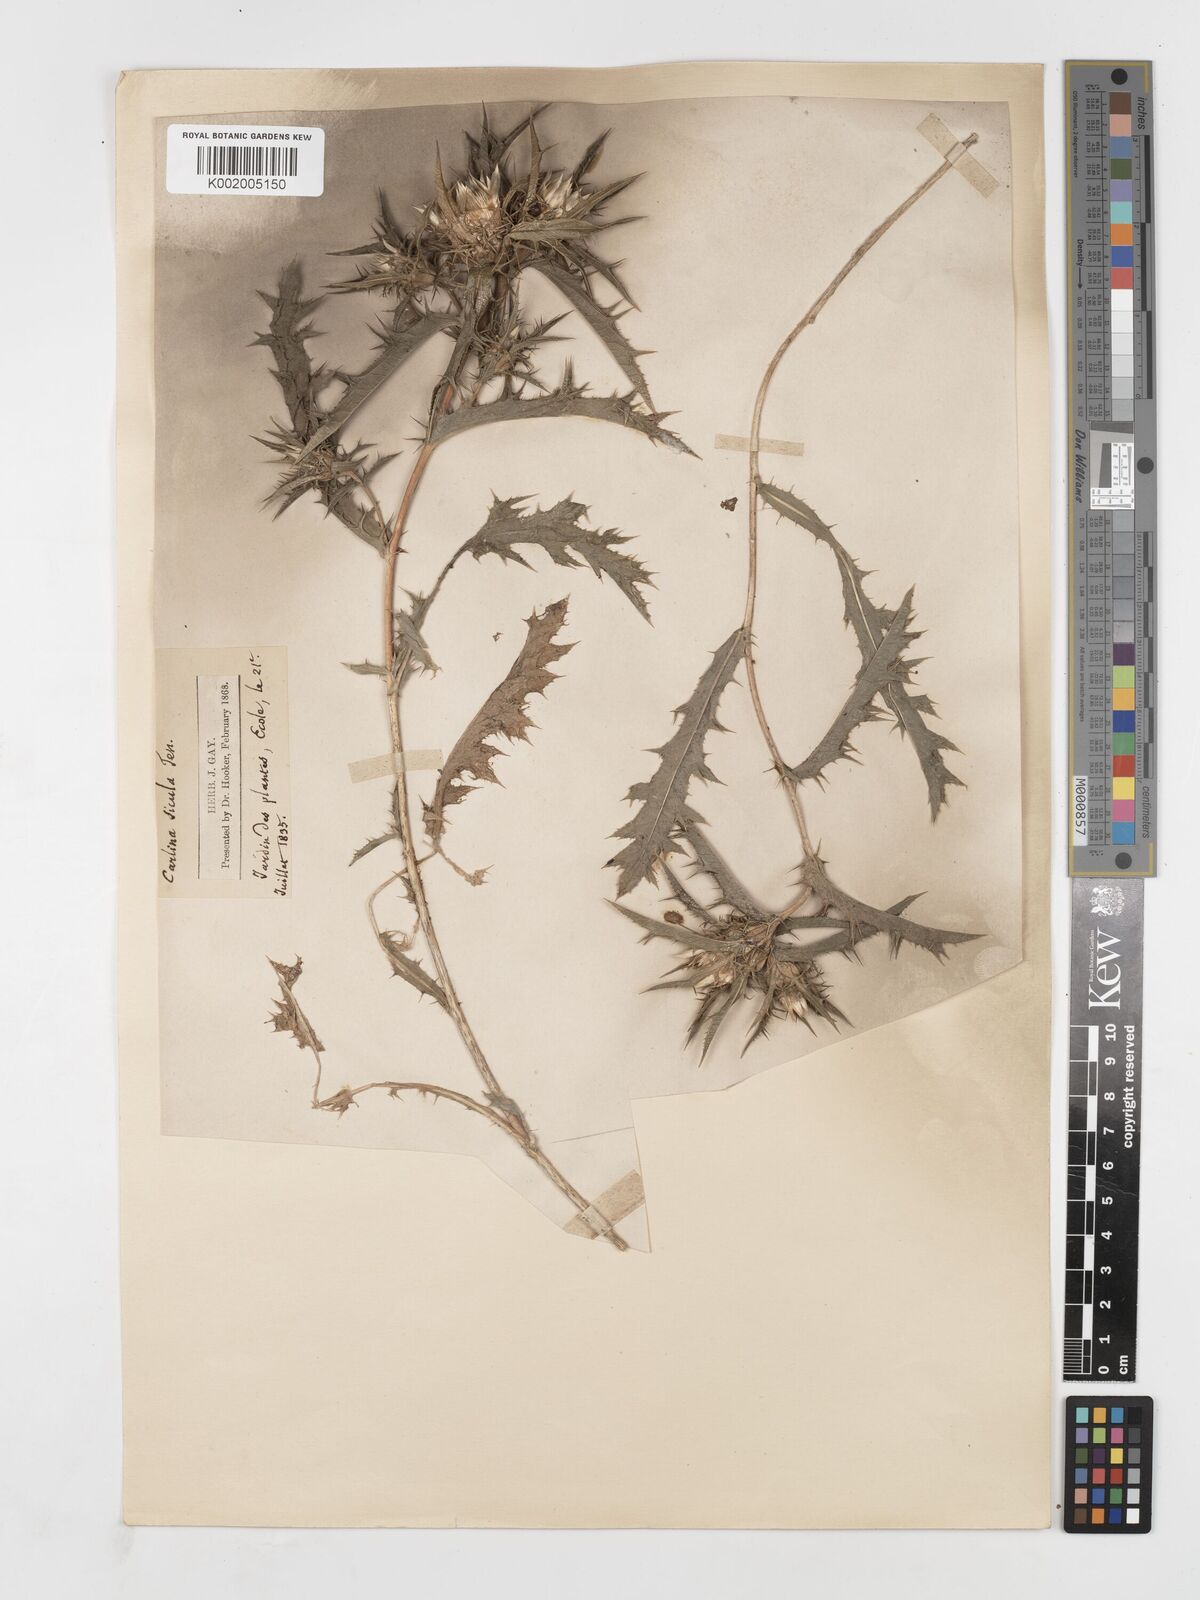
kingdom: Plantae
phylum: Tracheophyta
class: Magnoliopsida
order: Asterales
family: Asteraceae
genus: Carlina
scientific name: Carlina salicifolia
